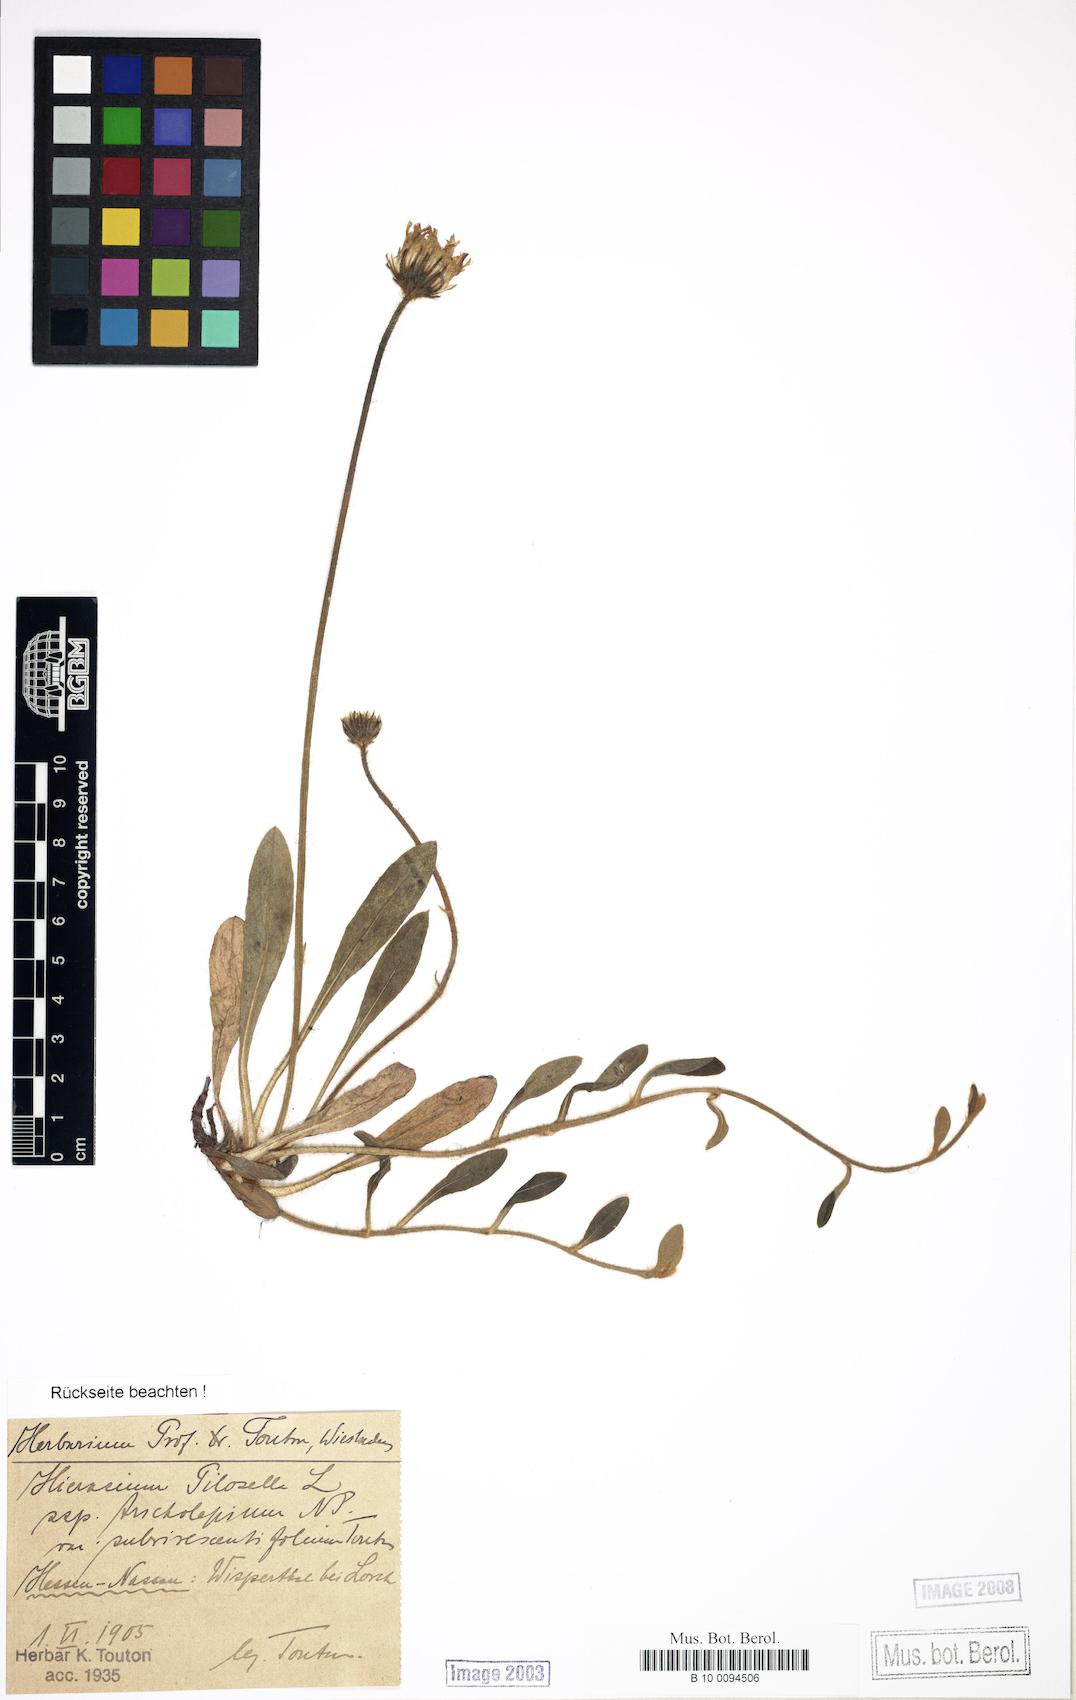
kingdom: Plantae
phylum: Tracheophyta
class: Magnoliopsida
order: Asterales
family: Asteraceae
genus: Pilosella
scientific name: Pilosella officinarum
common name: Mouse-ear hawkweed
